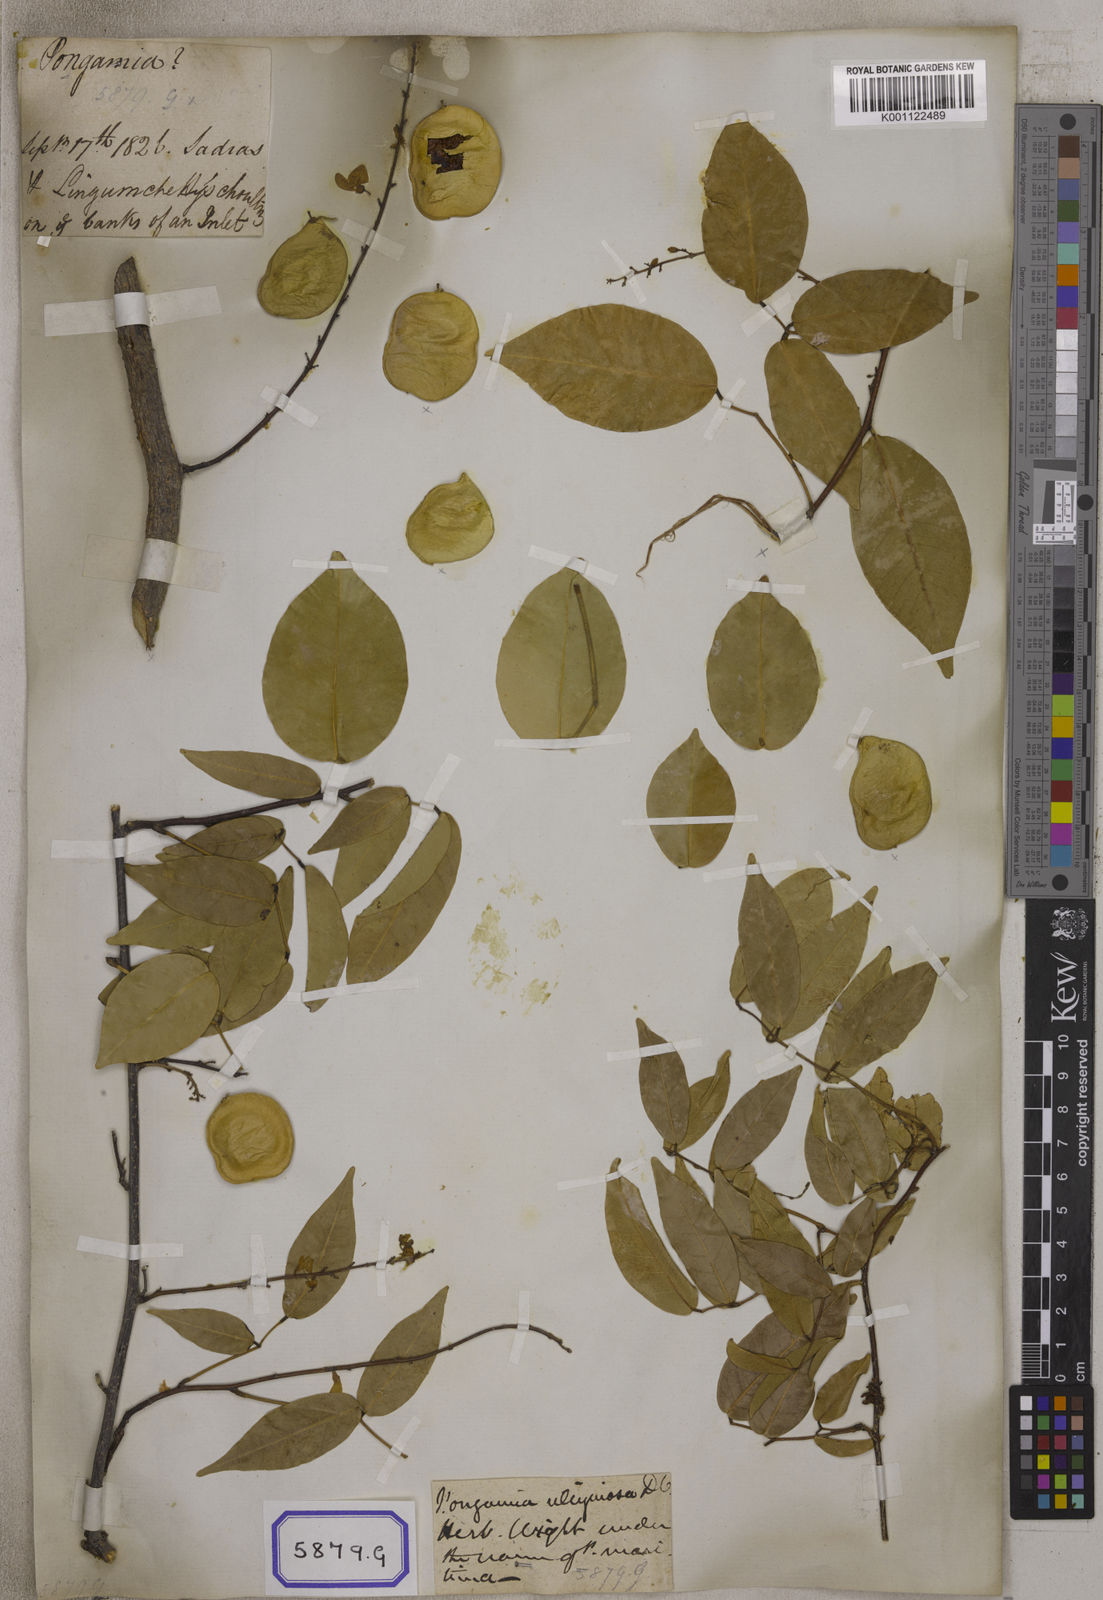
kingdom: Plantae
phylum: Tracheophyta
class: Magnoliopsida
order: Fabales
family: Fabaceae
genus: Derris
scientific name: Derris trifoliata
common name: Three-leaf derris
